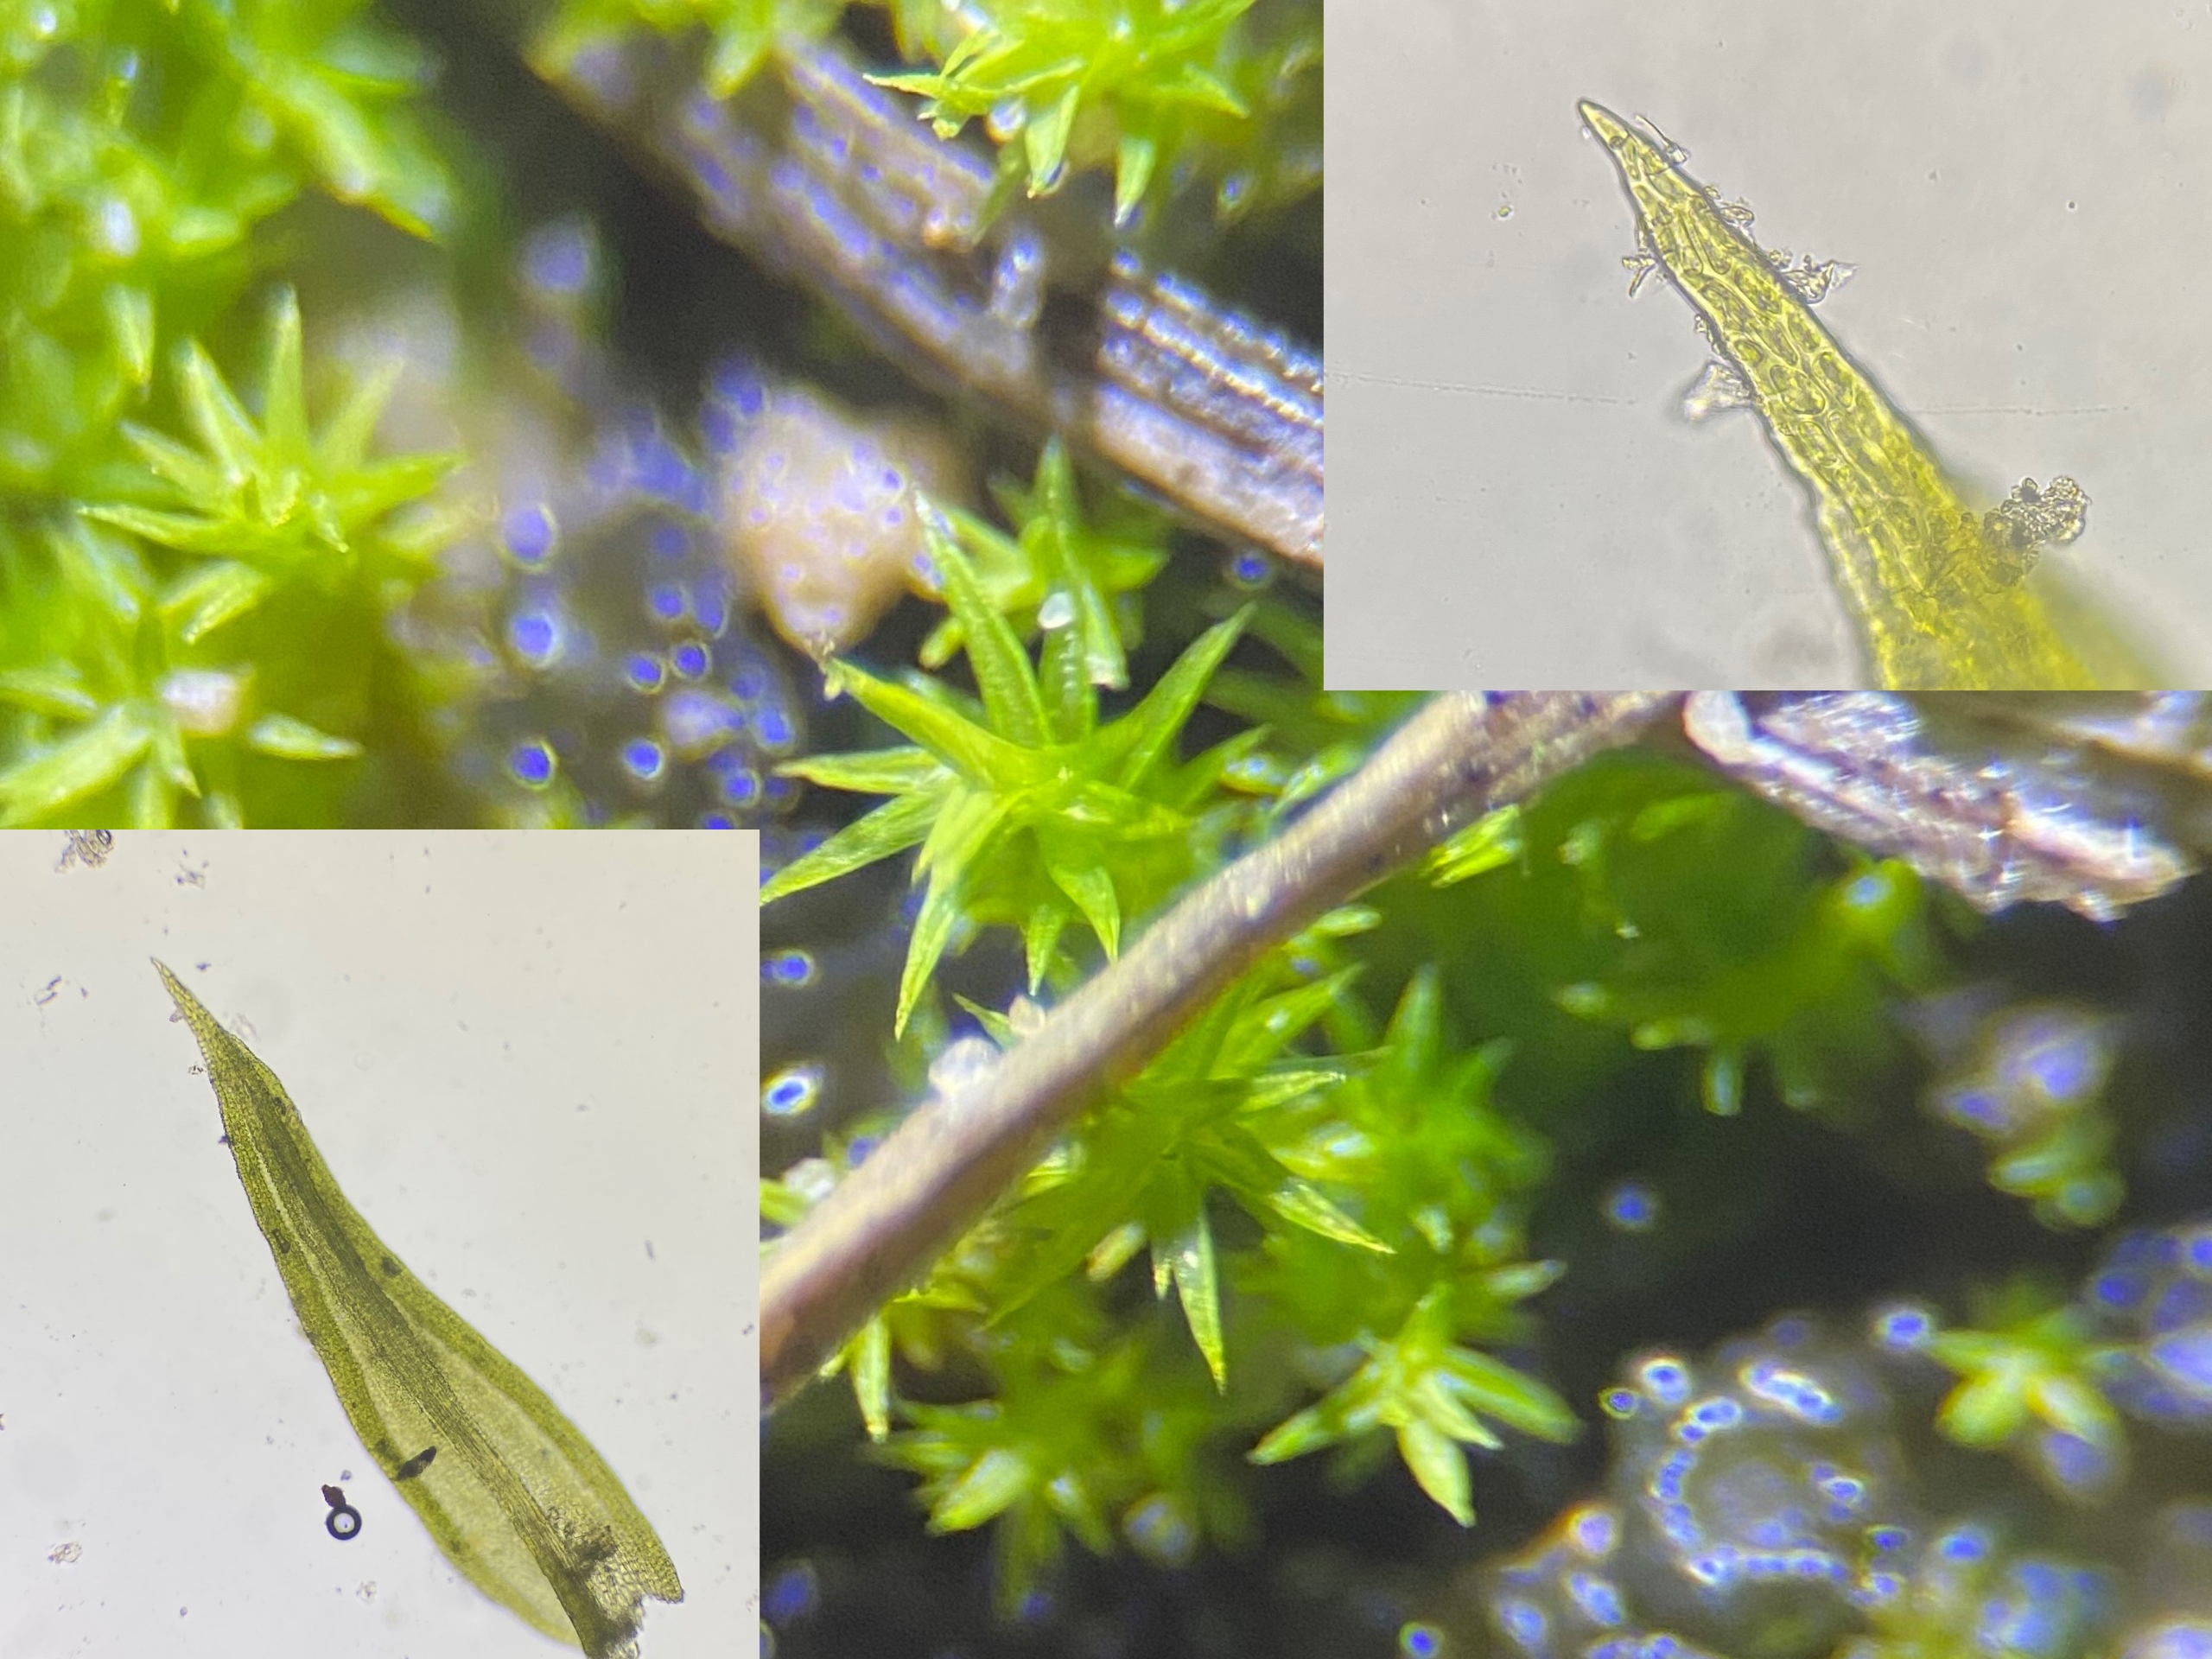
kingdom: Plantae
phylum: Bryophyta
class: Bryopsida
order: Pottiales
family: Pottiaceae
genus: Pseudocrossidium
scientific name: Pseudocrossidium hornschuchianum
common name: Spids rullerand
